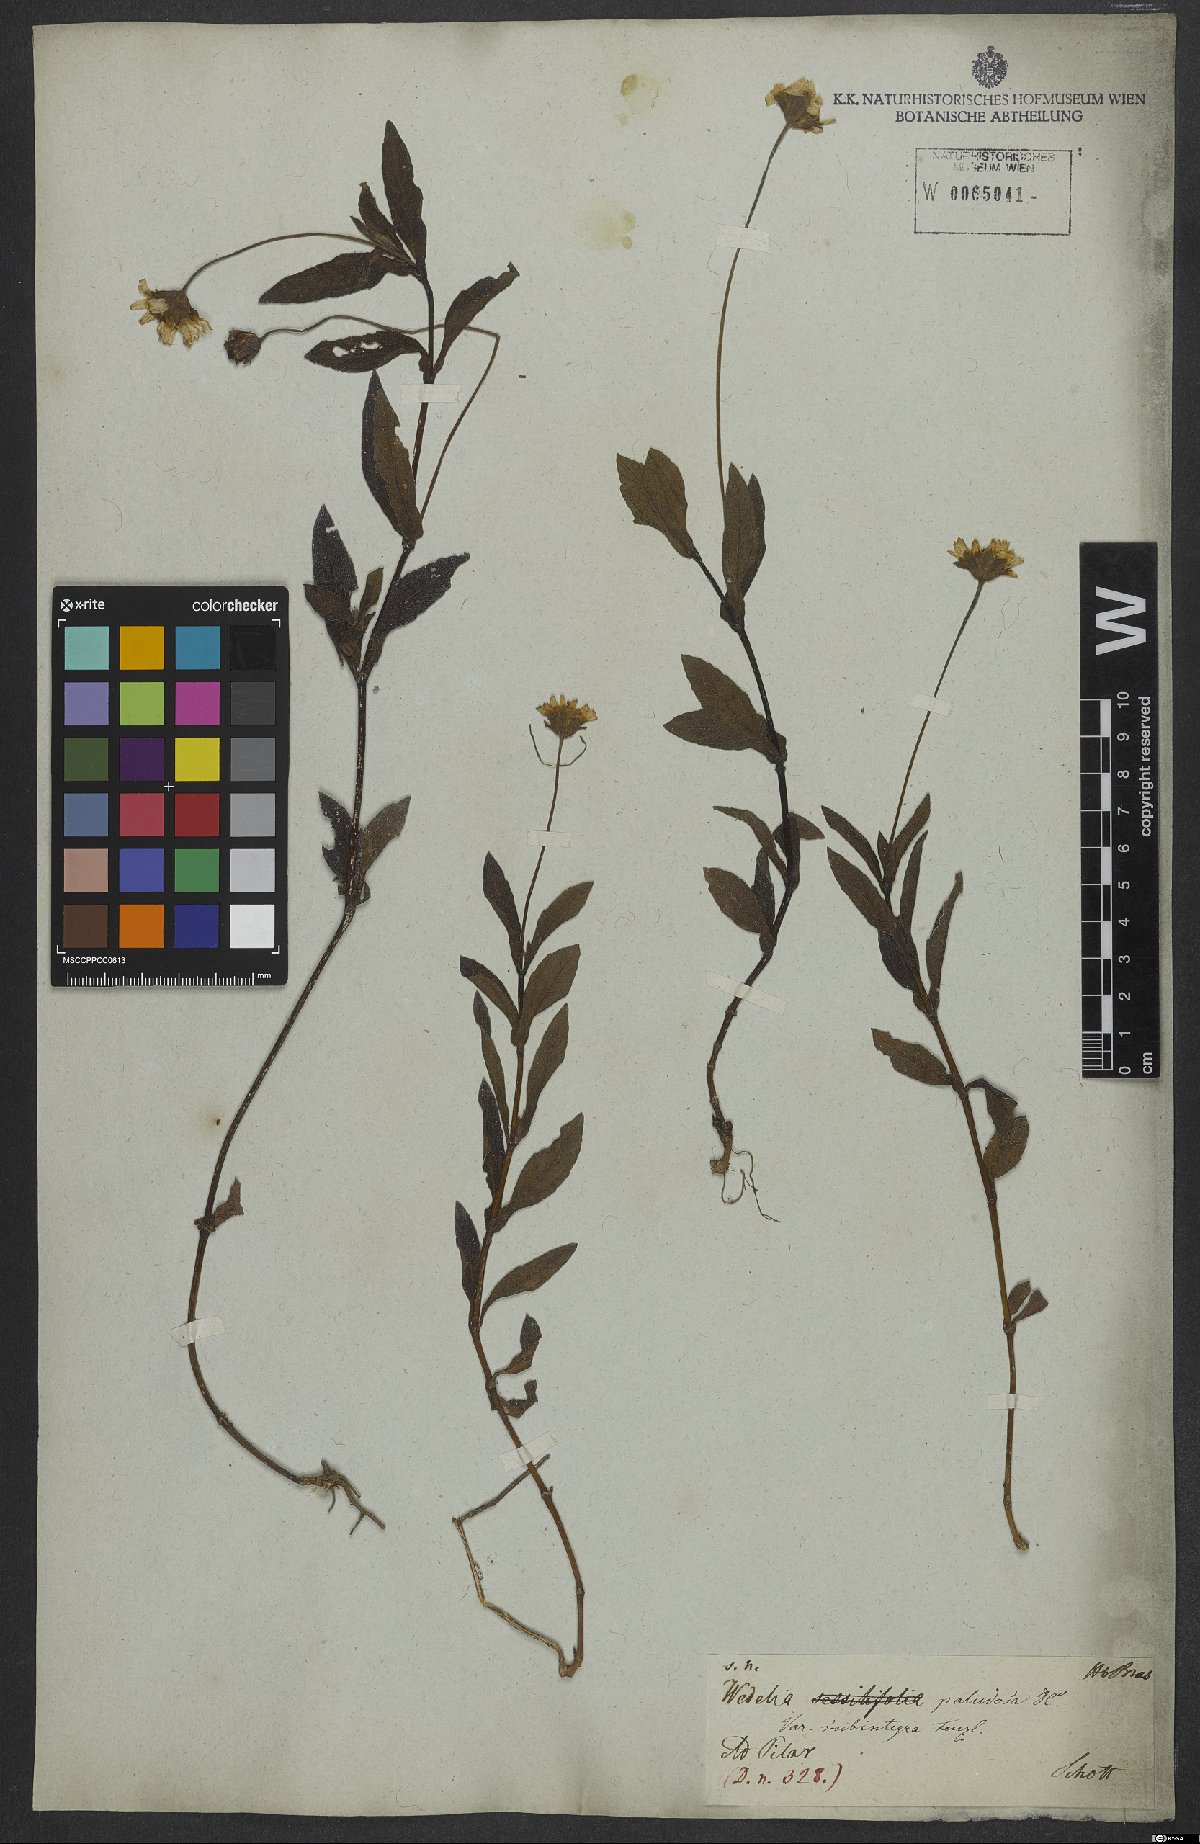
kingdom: Plantae
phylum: Tracheophyta
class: Magnoliopsida
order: Asterales
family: Asteraceae
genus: Sphagneticola
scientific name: Sphagneticola trilobata
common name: Bay biscayne creeping-oxeye
